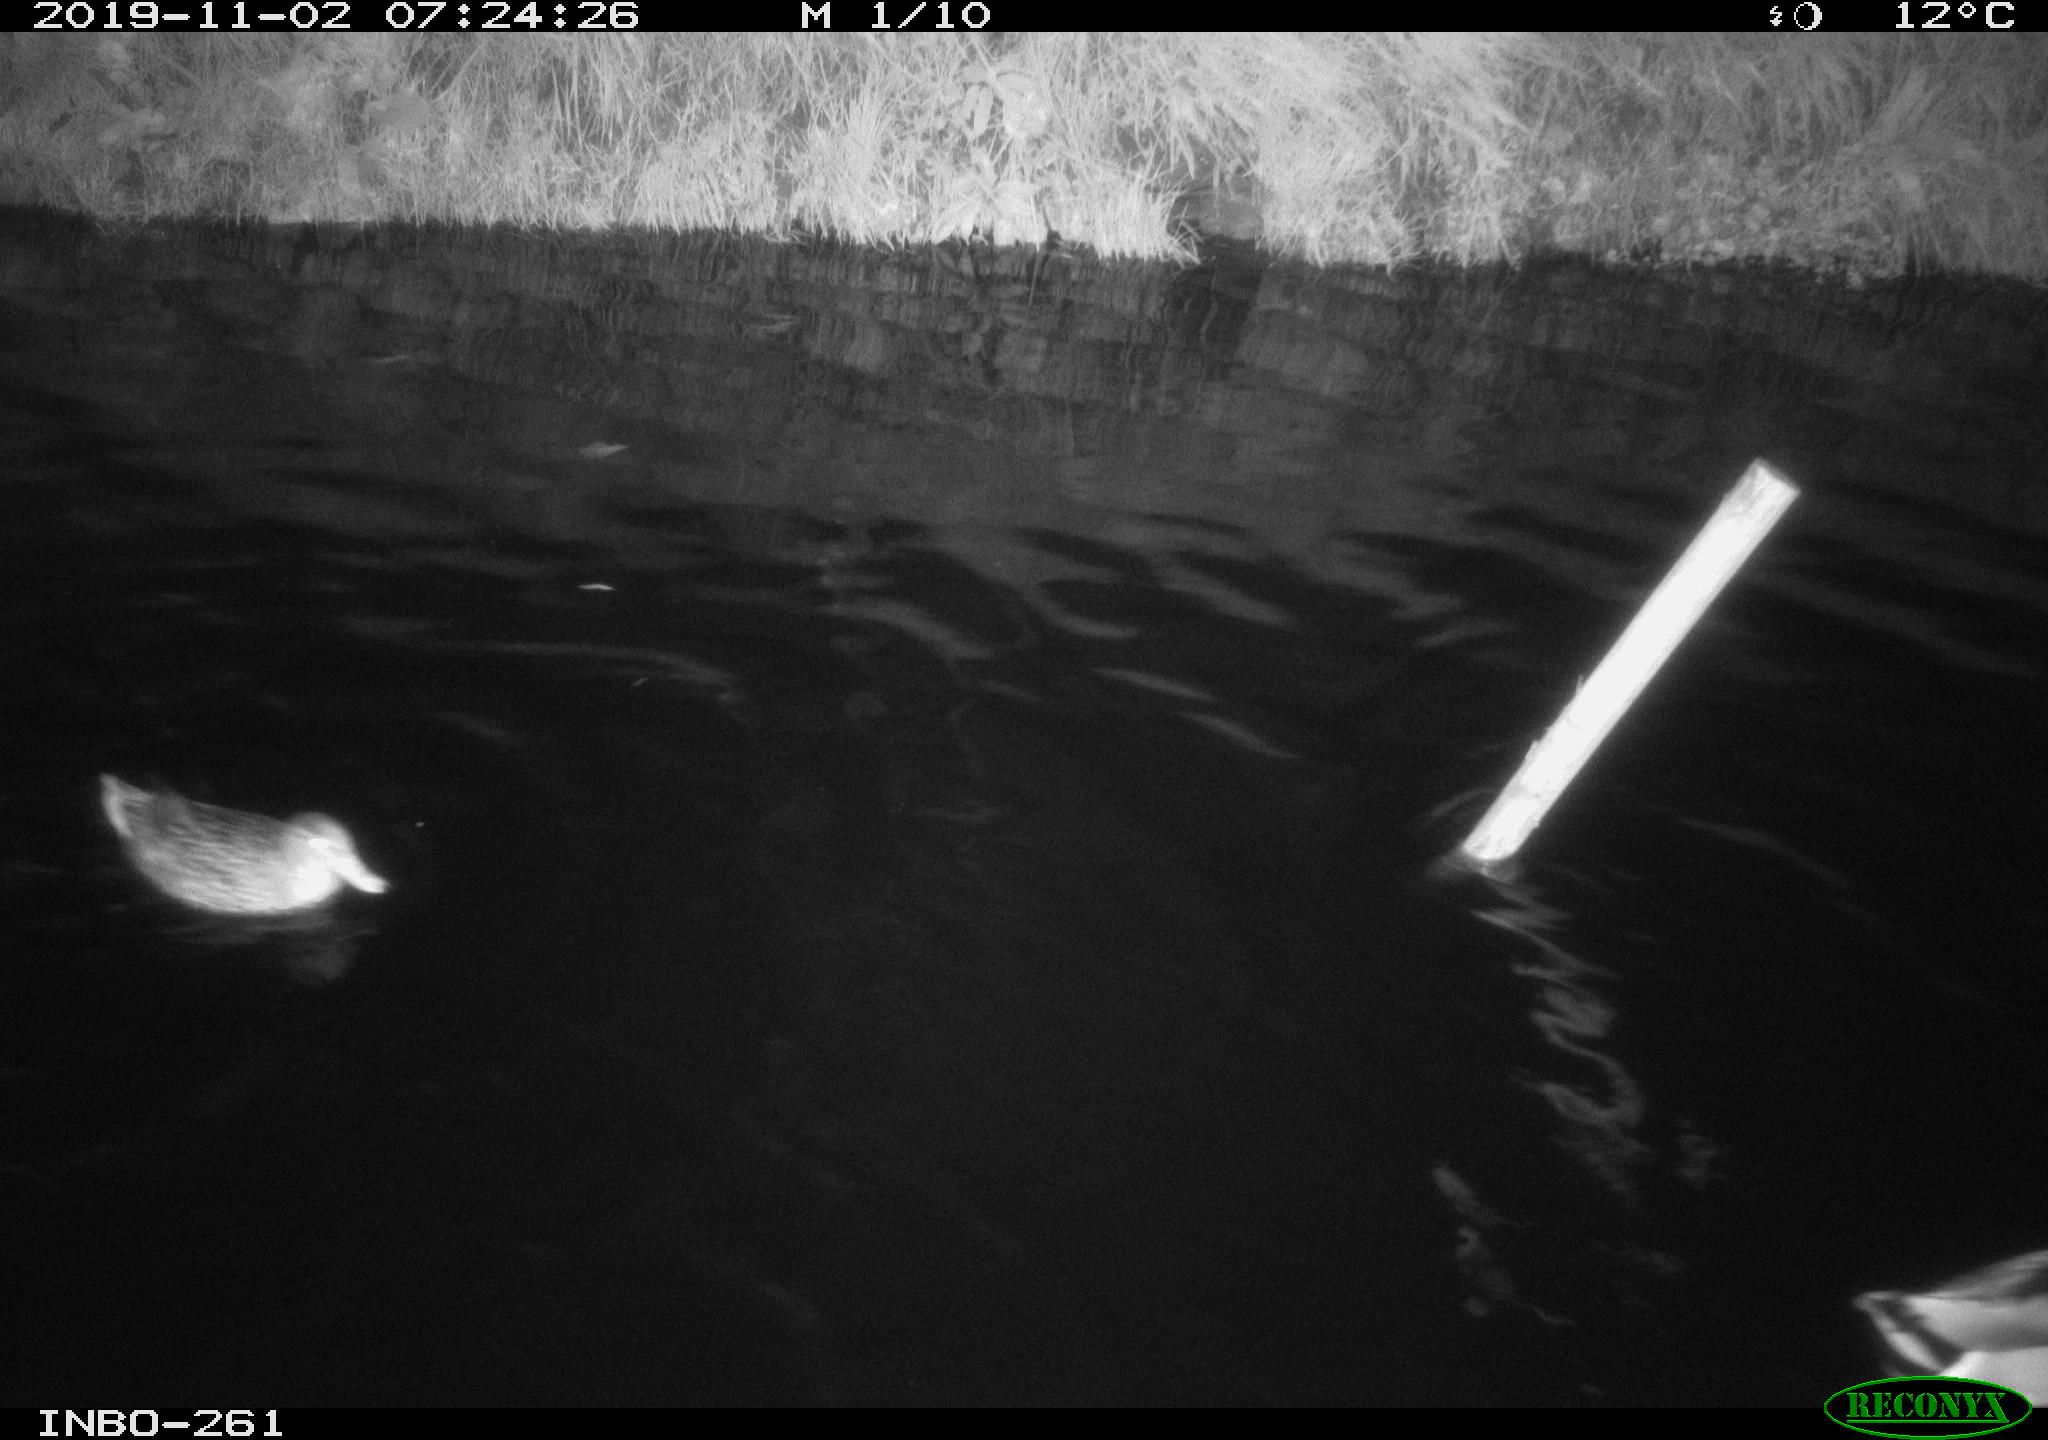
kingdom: Animalia
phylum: Chordata
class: Aves
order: Anseriformes
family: Anatidae
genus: Anas
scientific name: Anas platyrhynchos
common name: Mallard
